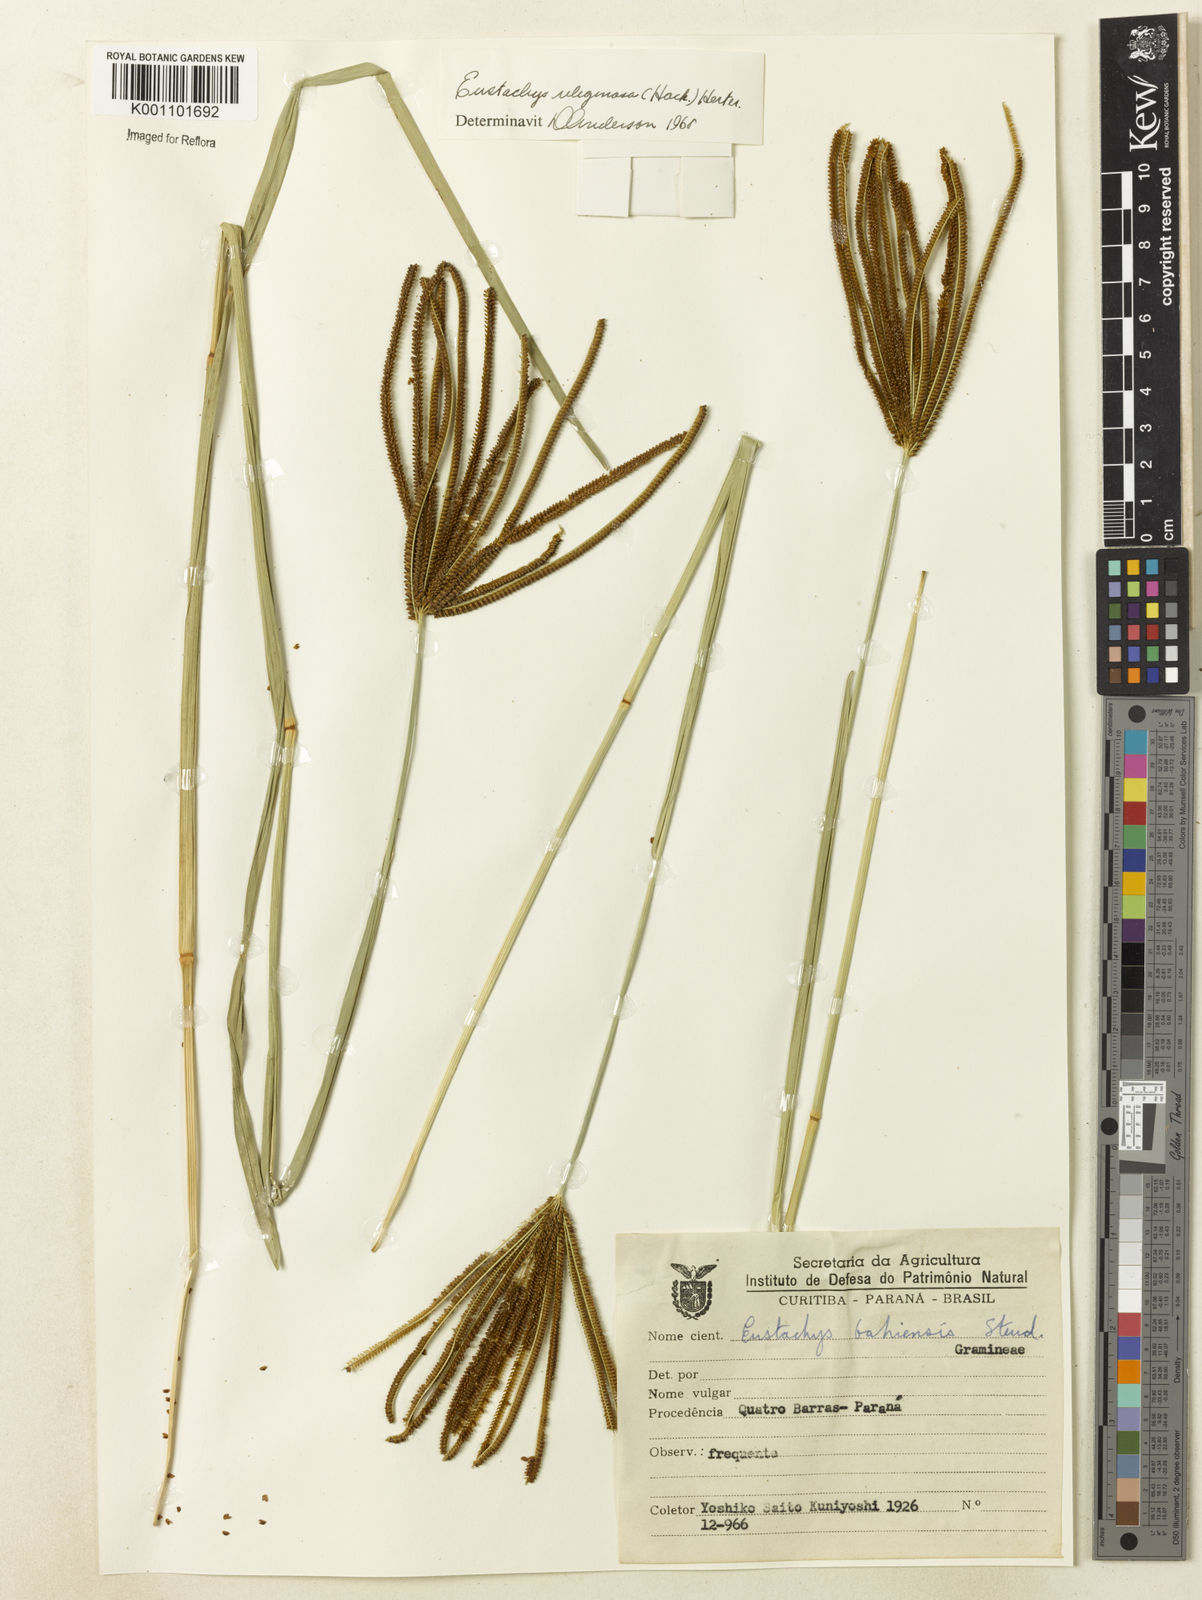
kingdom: Plantae
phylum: Tracheophyta
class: Liliopsida
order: Poales
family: Poaceae
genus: Eustachys
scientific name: Eustachys uliginosa
